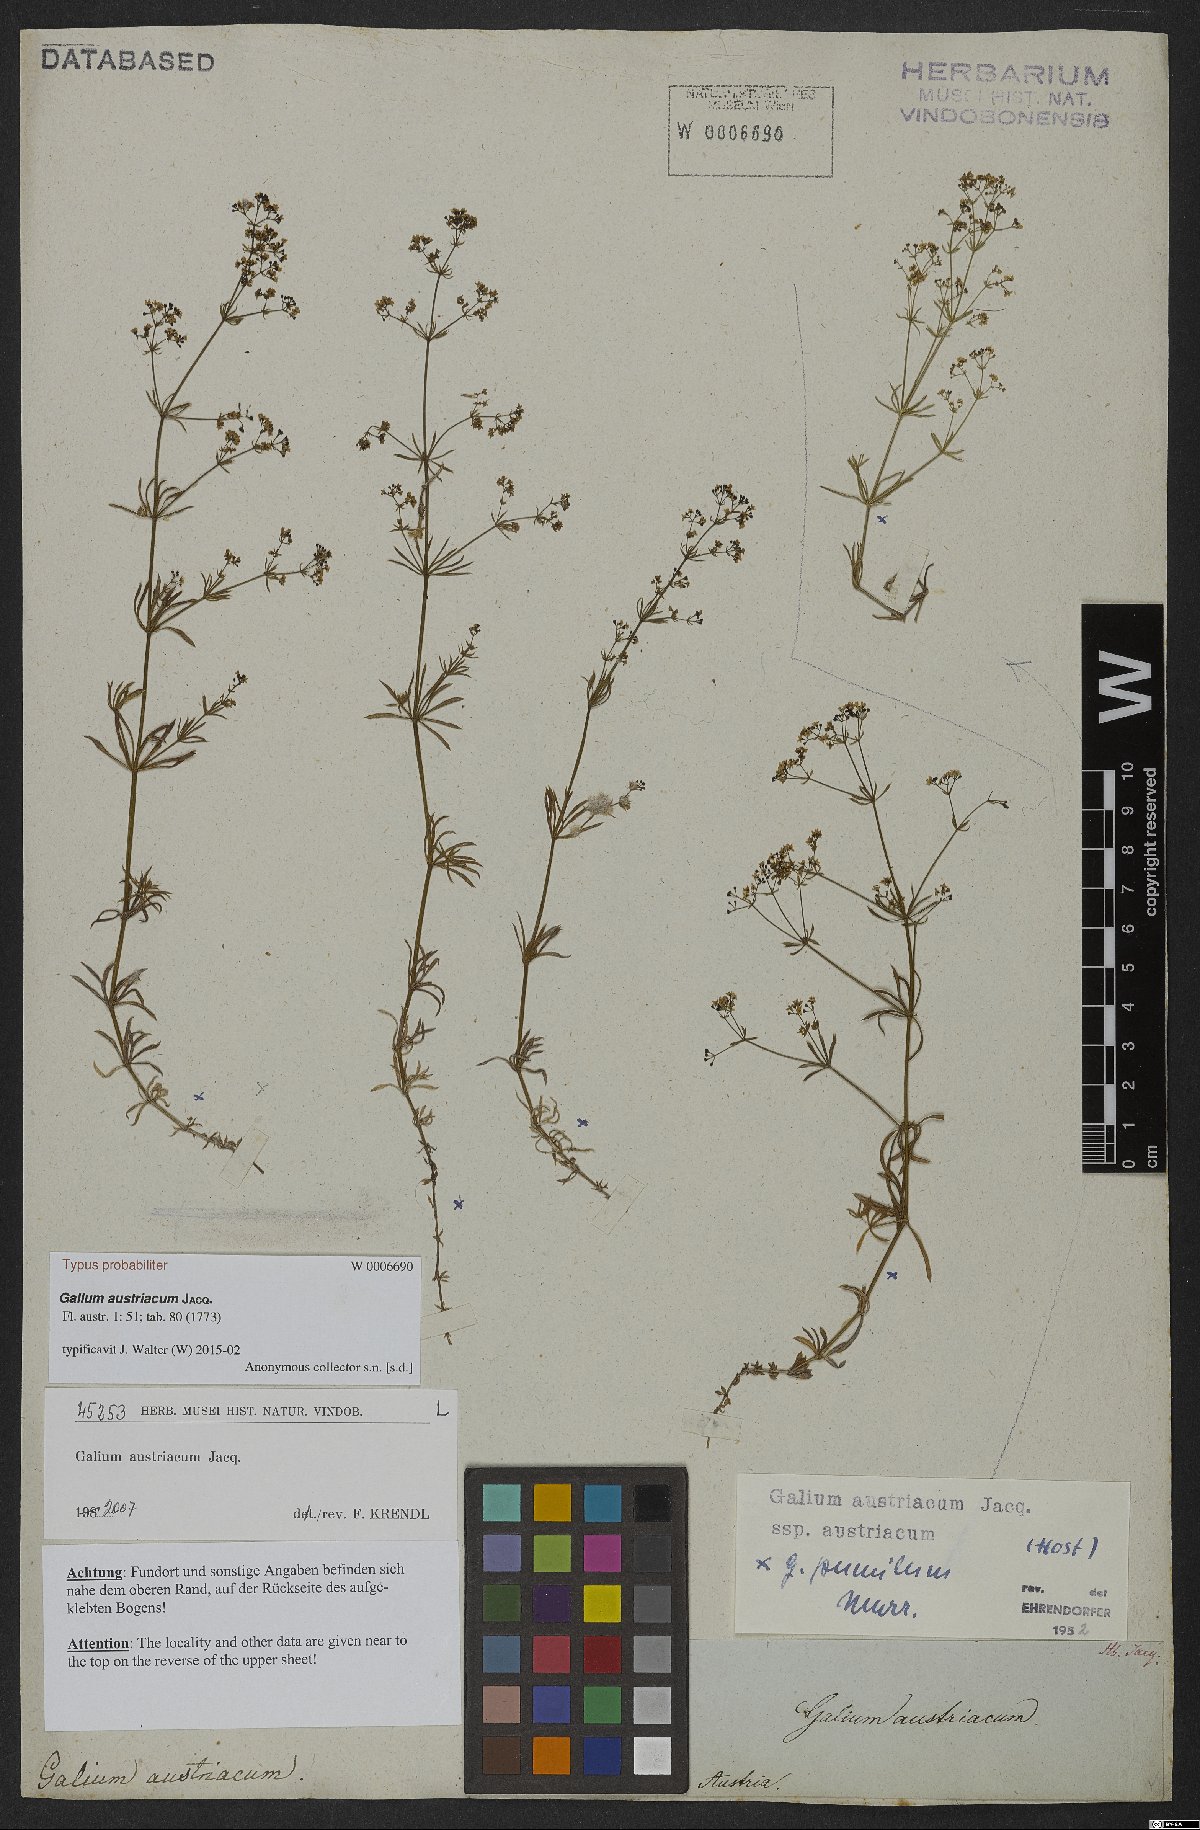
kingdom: Plantae
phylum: Tracheophyta
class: Magnoliopsida
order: Gentianales
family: Rubiaceae
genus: Galium
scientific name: Galium austriacum
